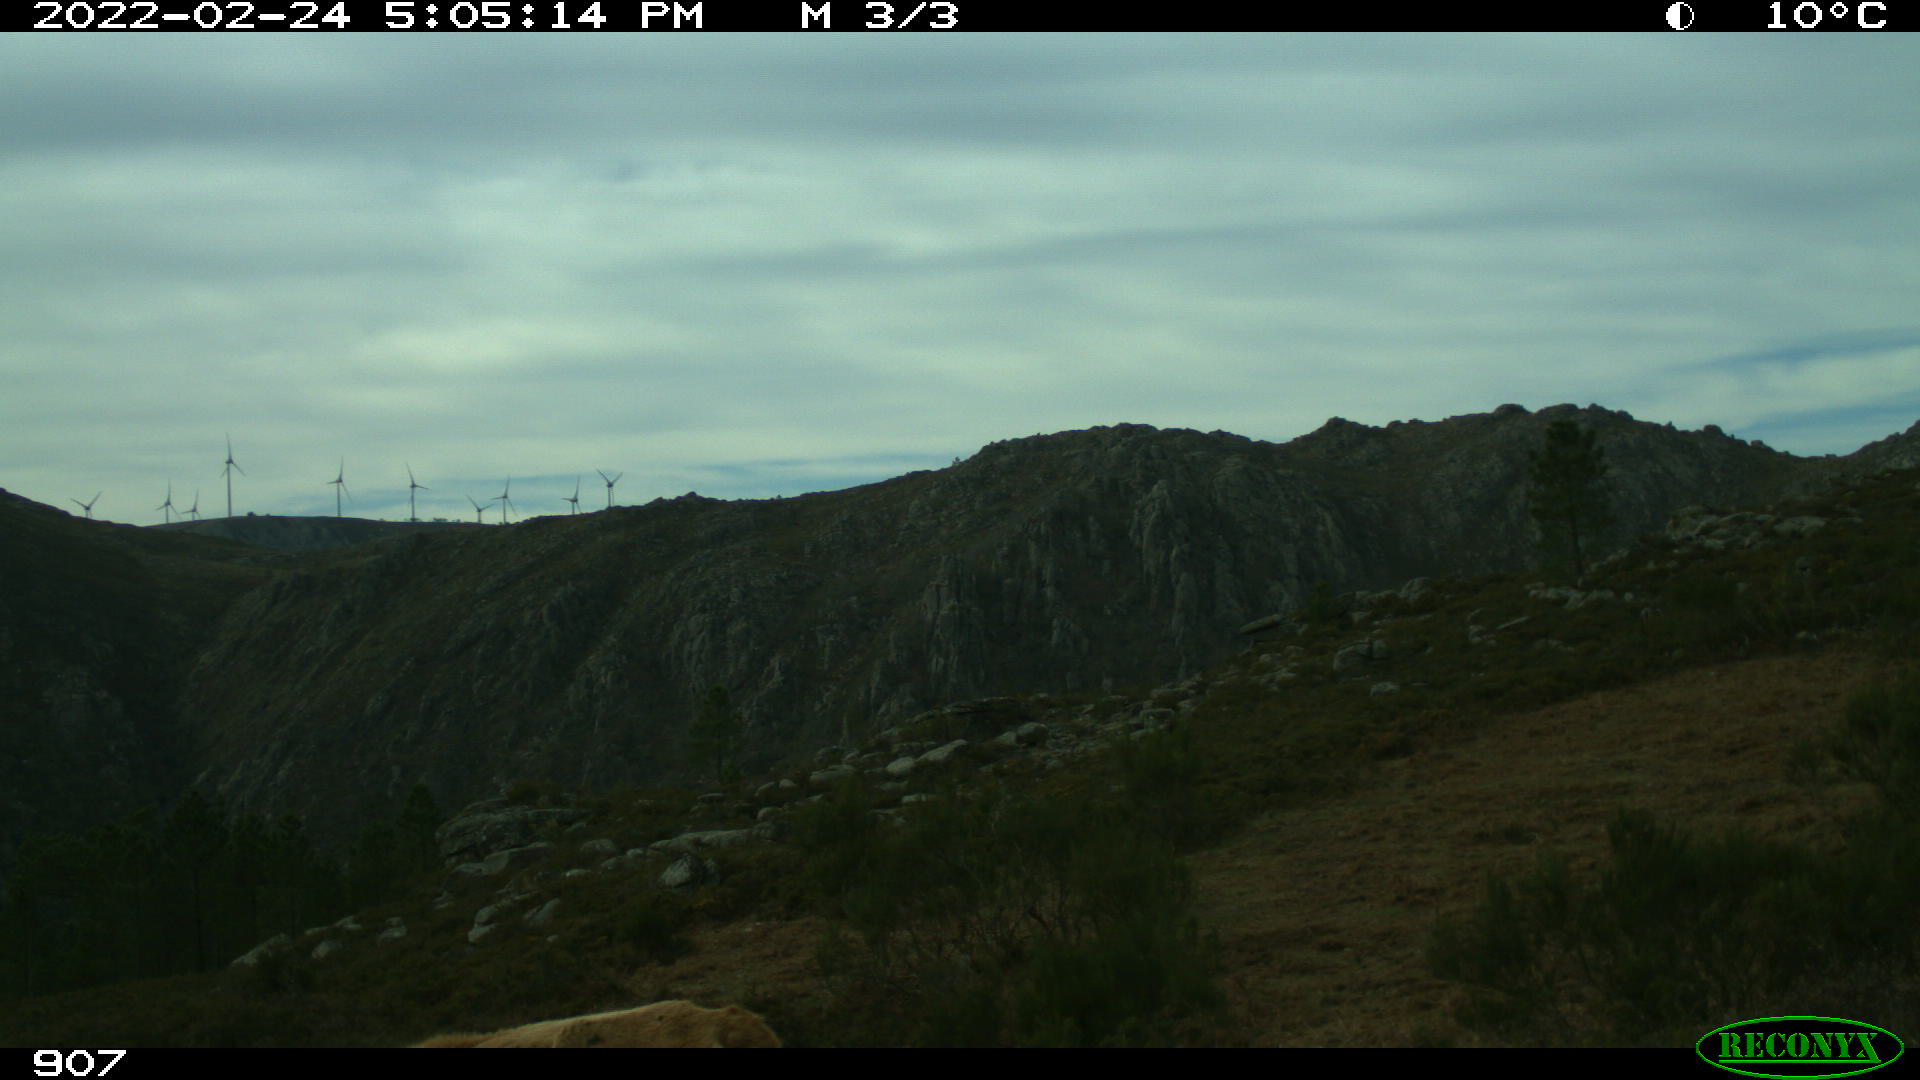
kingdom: Animalia
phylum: Chordata
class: Mammalia
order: Artiodactyla
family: Bovidae
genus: Bos
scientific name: Bos taurus
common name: Domesticated cattle
